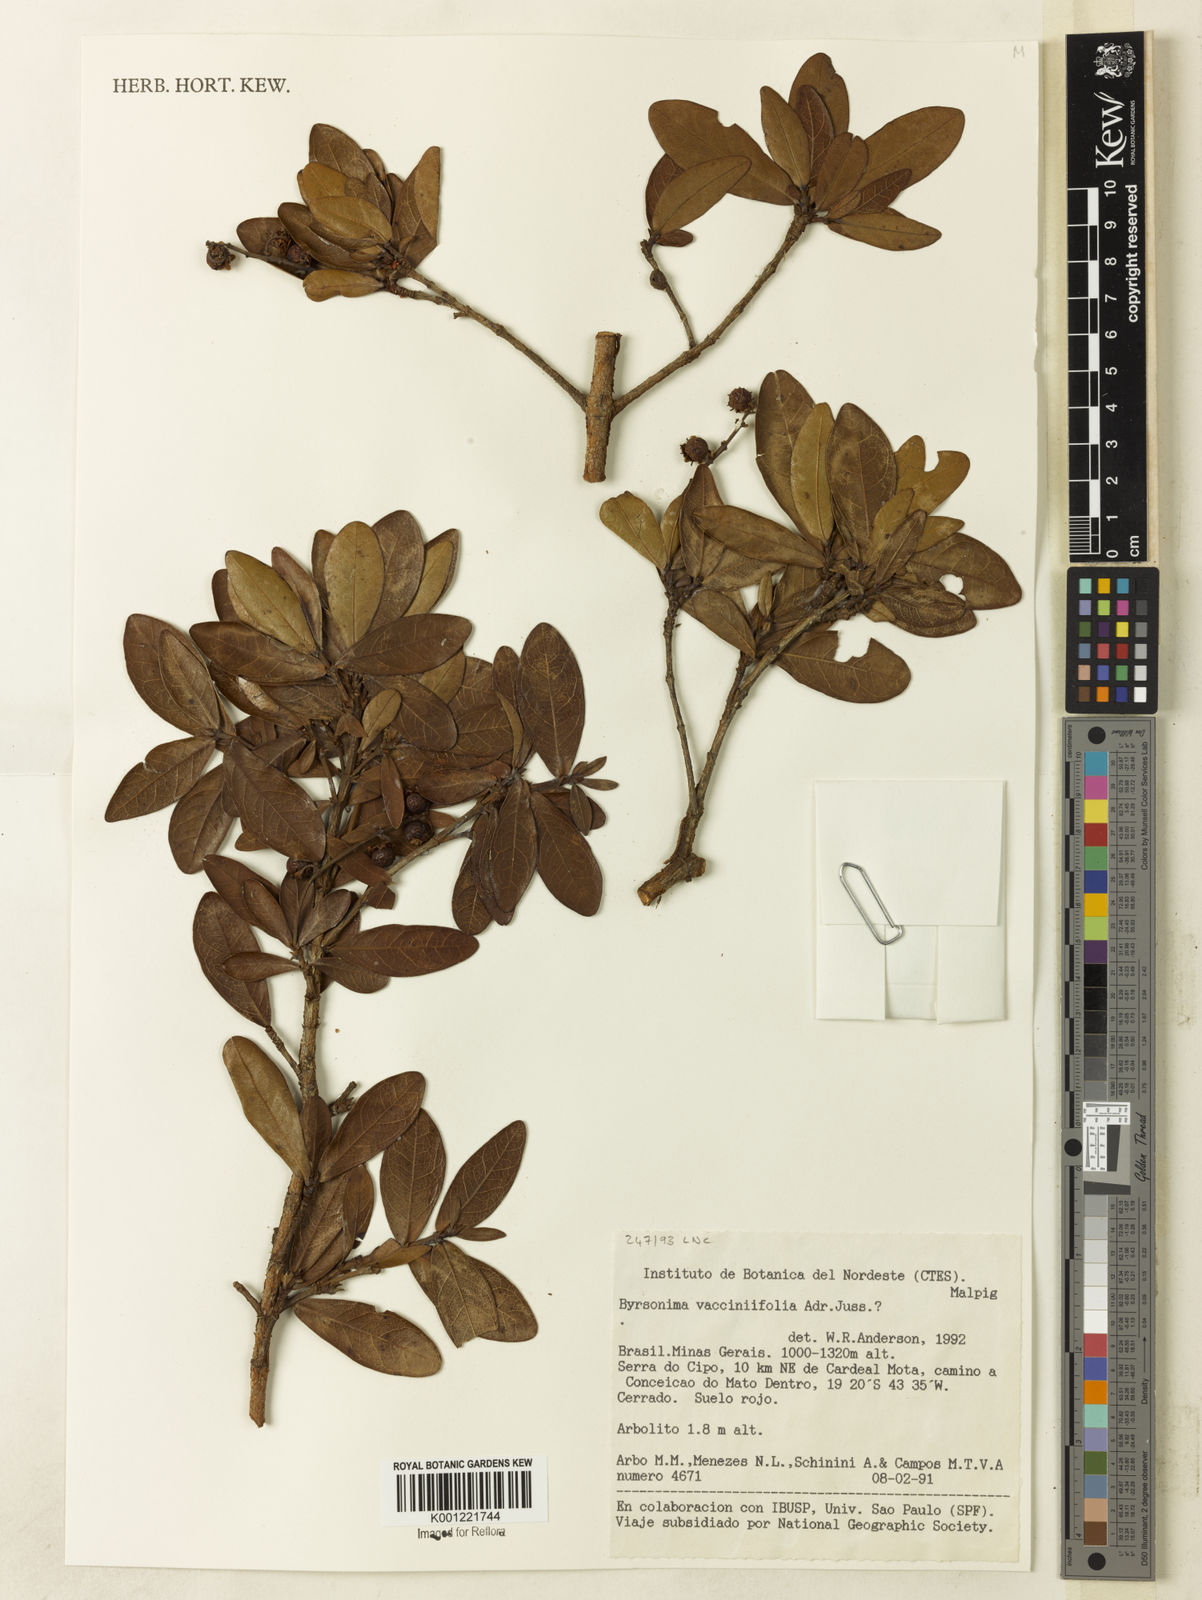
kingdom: Plantae
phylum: Tracheophyta
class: Magnoliopsida
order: Malpighiales
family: Malpighiaceae
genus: Byrsonima
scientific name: Byrsonima vacciniifolia
